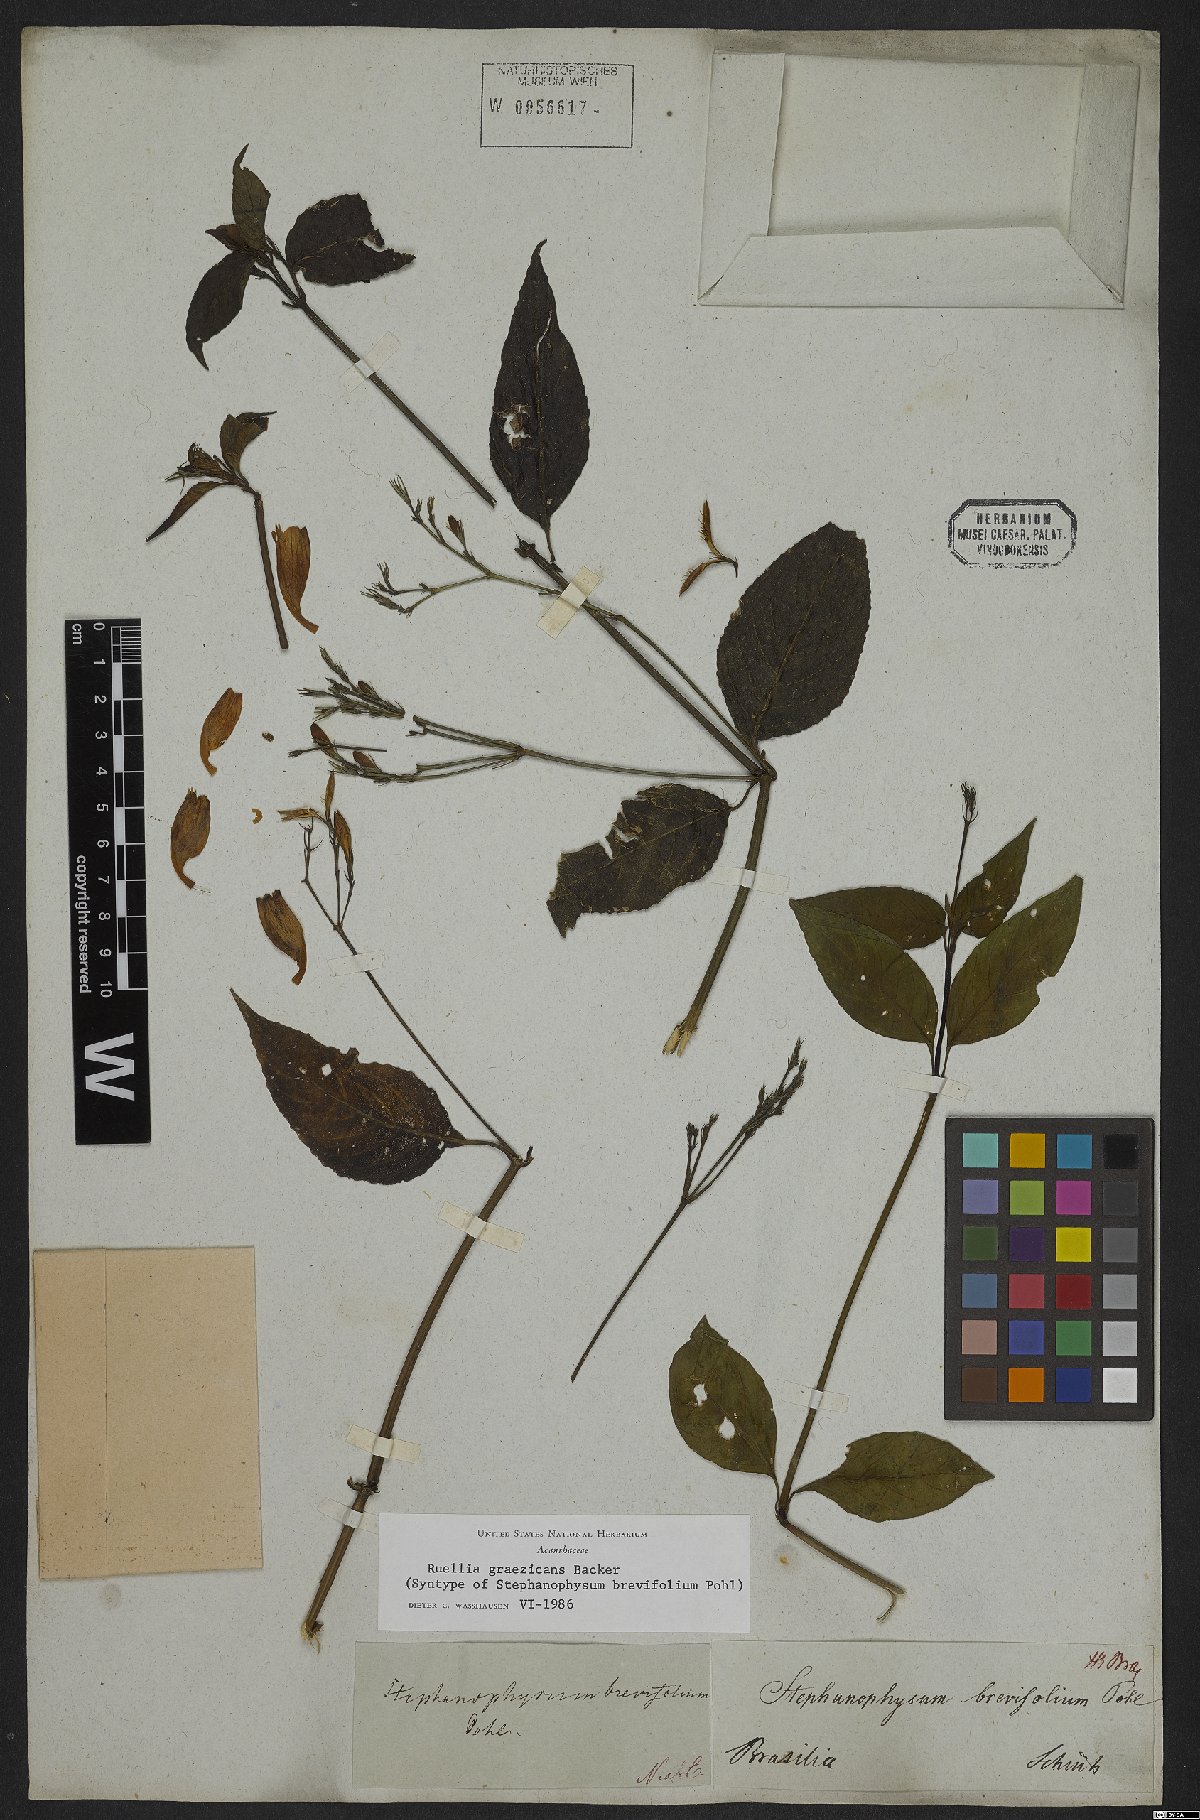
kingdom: Plantae
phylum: Tracheophyta
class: Magnoliopsida
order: Lamiales
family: Acanthaceae
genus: Ruellia
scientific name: Ruellia brevifolia
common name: Tropical wild petunia
